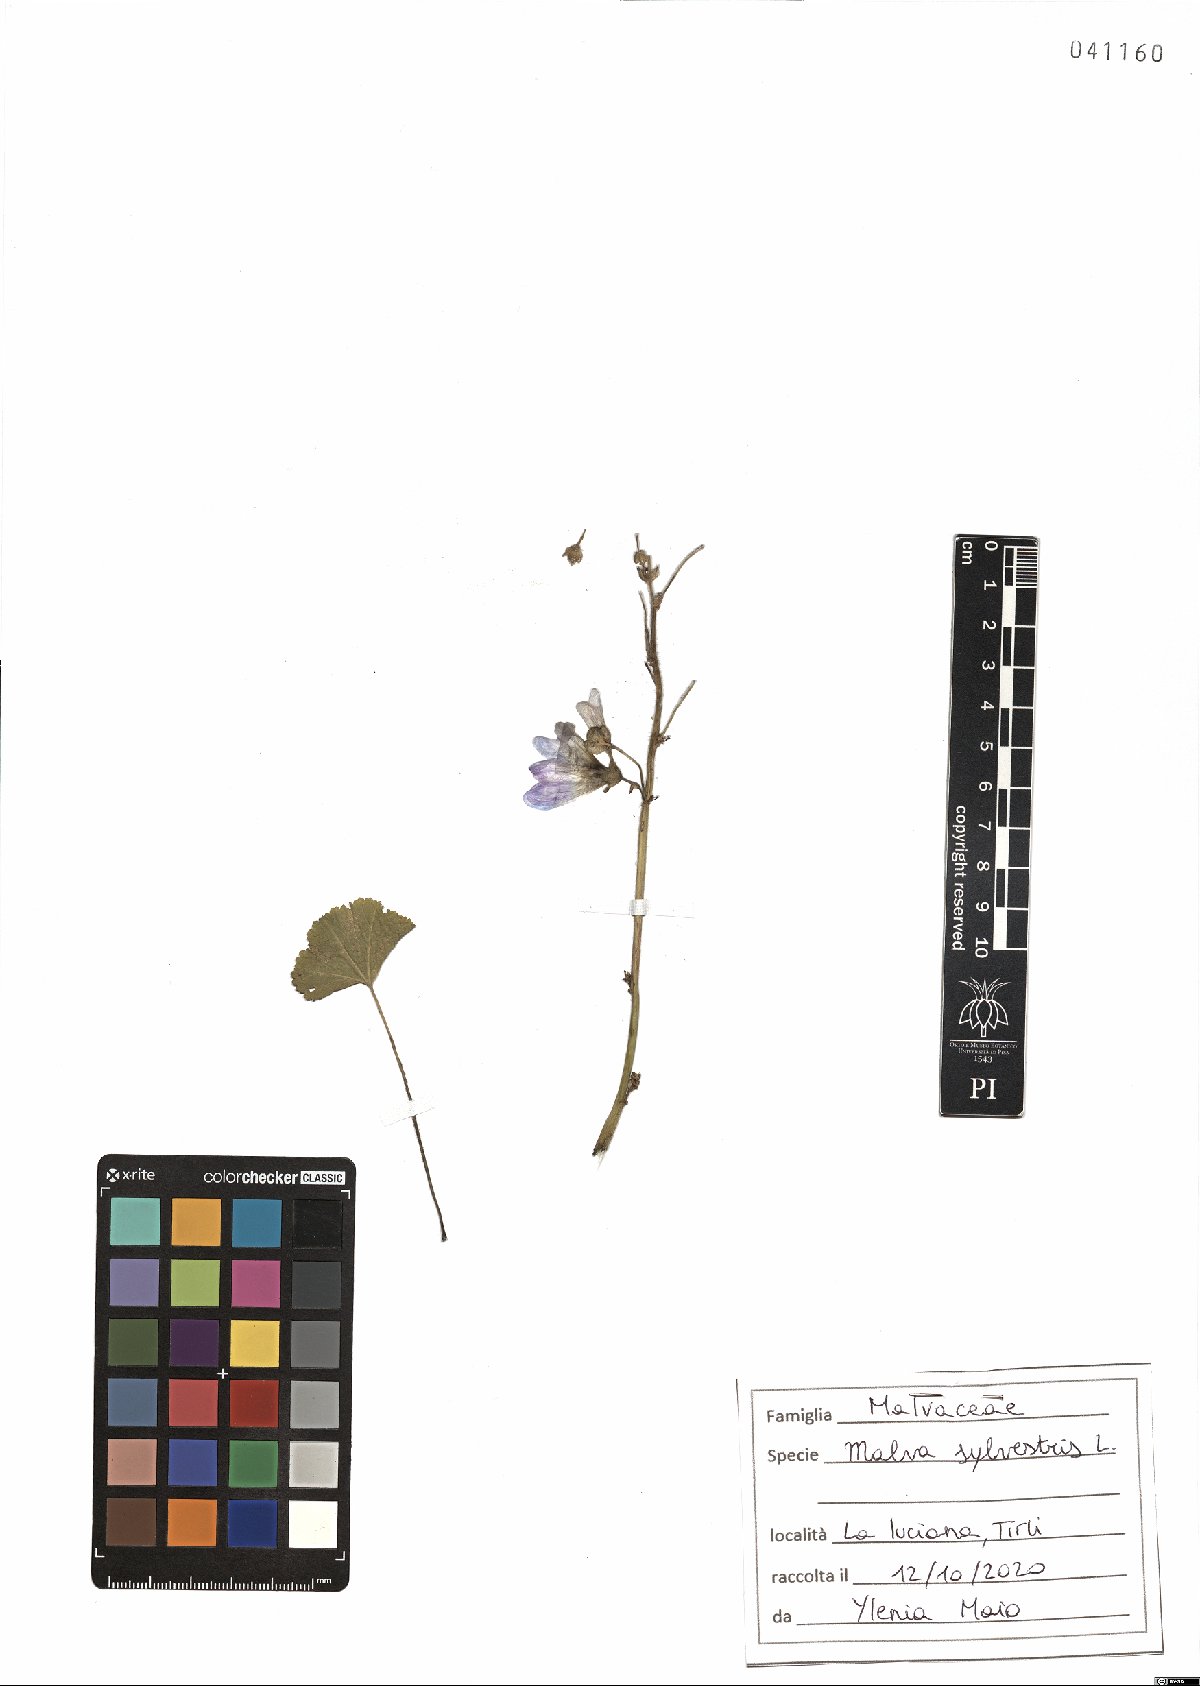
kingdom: Plantae
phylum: Tracheophyta
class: Magnoliopsida
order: Malvales
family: Malvaceae
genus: Malva
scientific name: Malva sylvestris
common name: Common mallow
